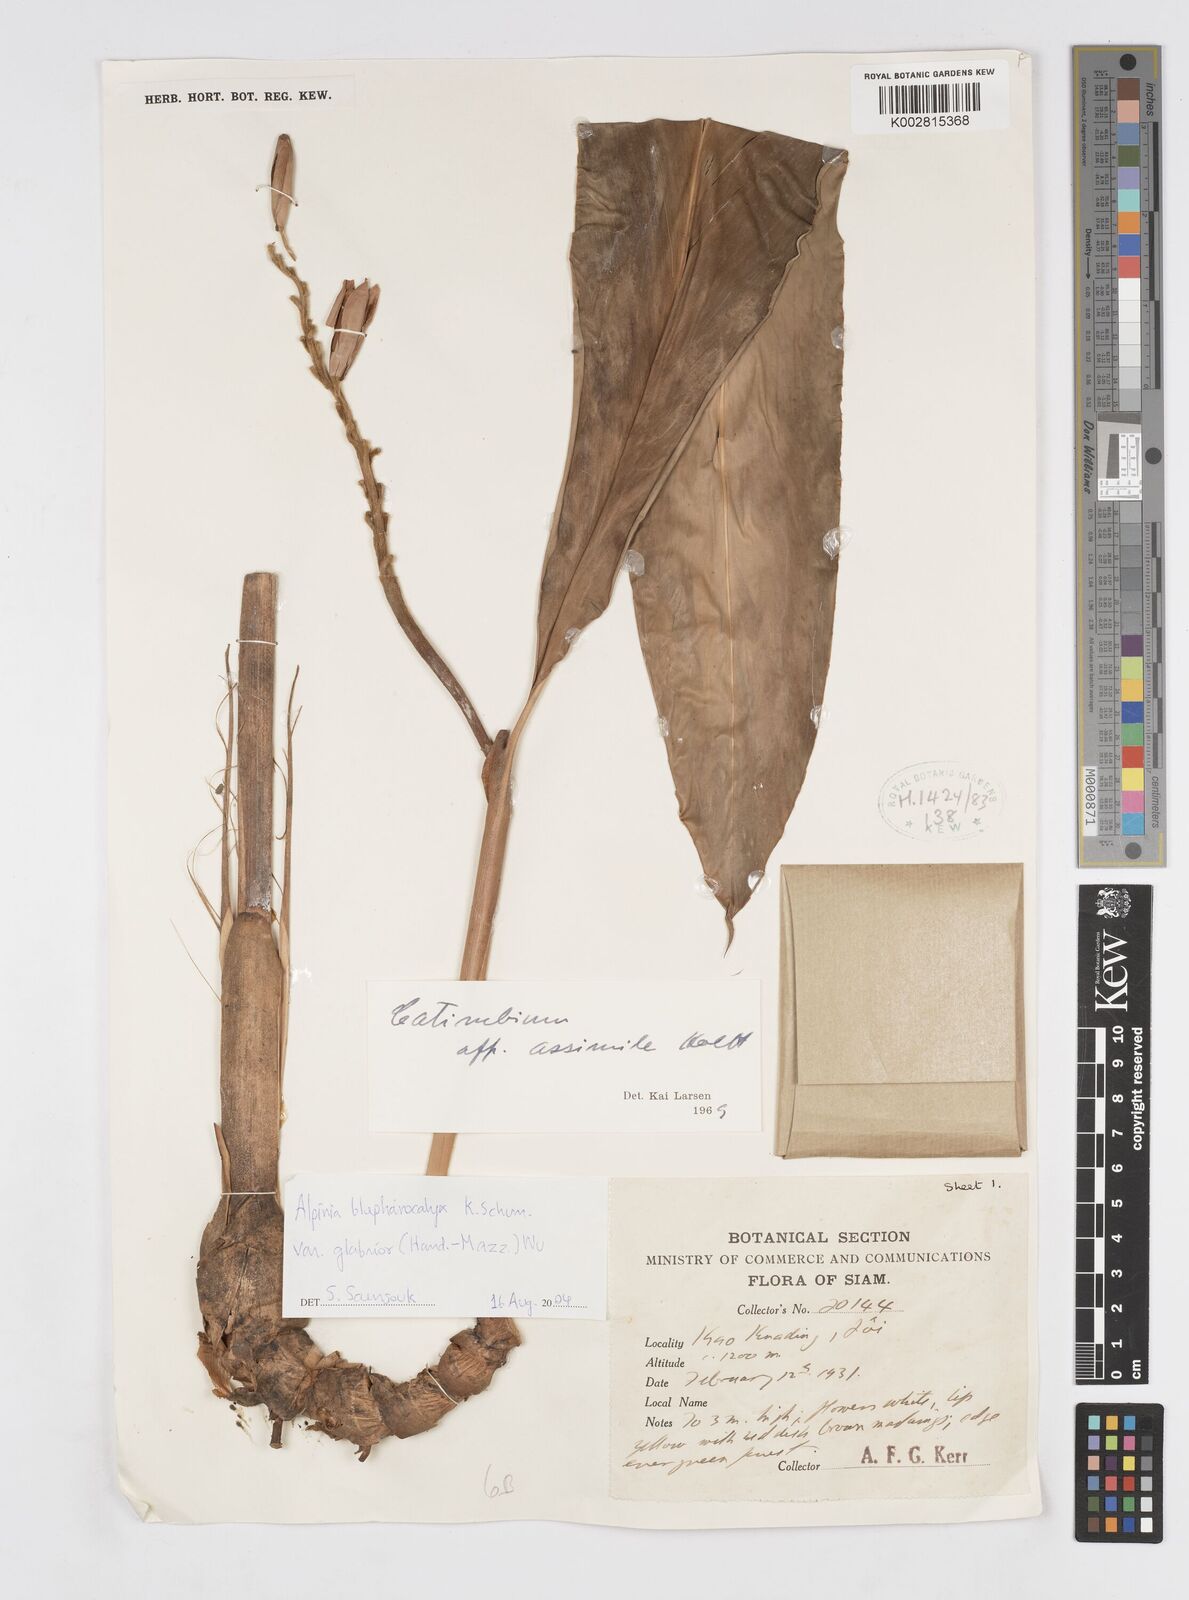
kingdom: Plantae
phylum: Tracheophyta
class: Liliopsida
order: Zingiberales
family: Zingiberaceae
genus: Alpinia
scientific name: Alpinia roxburghii
